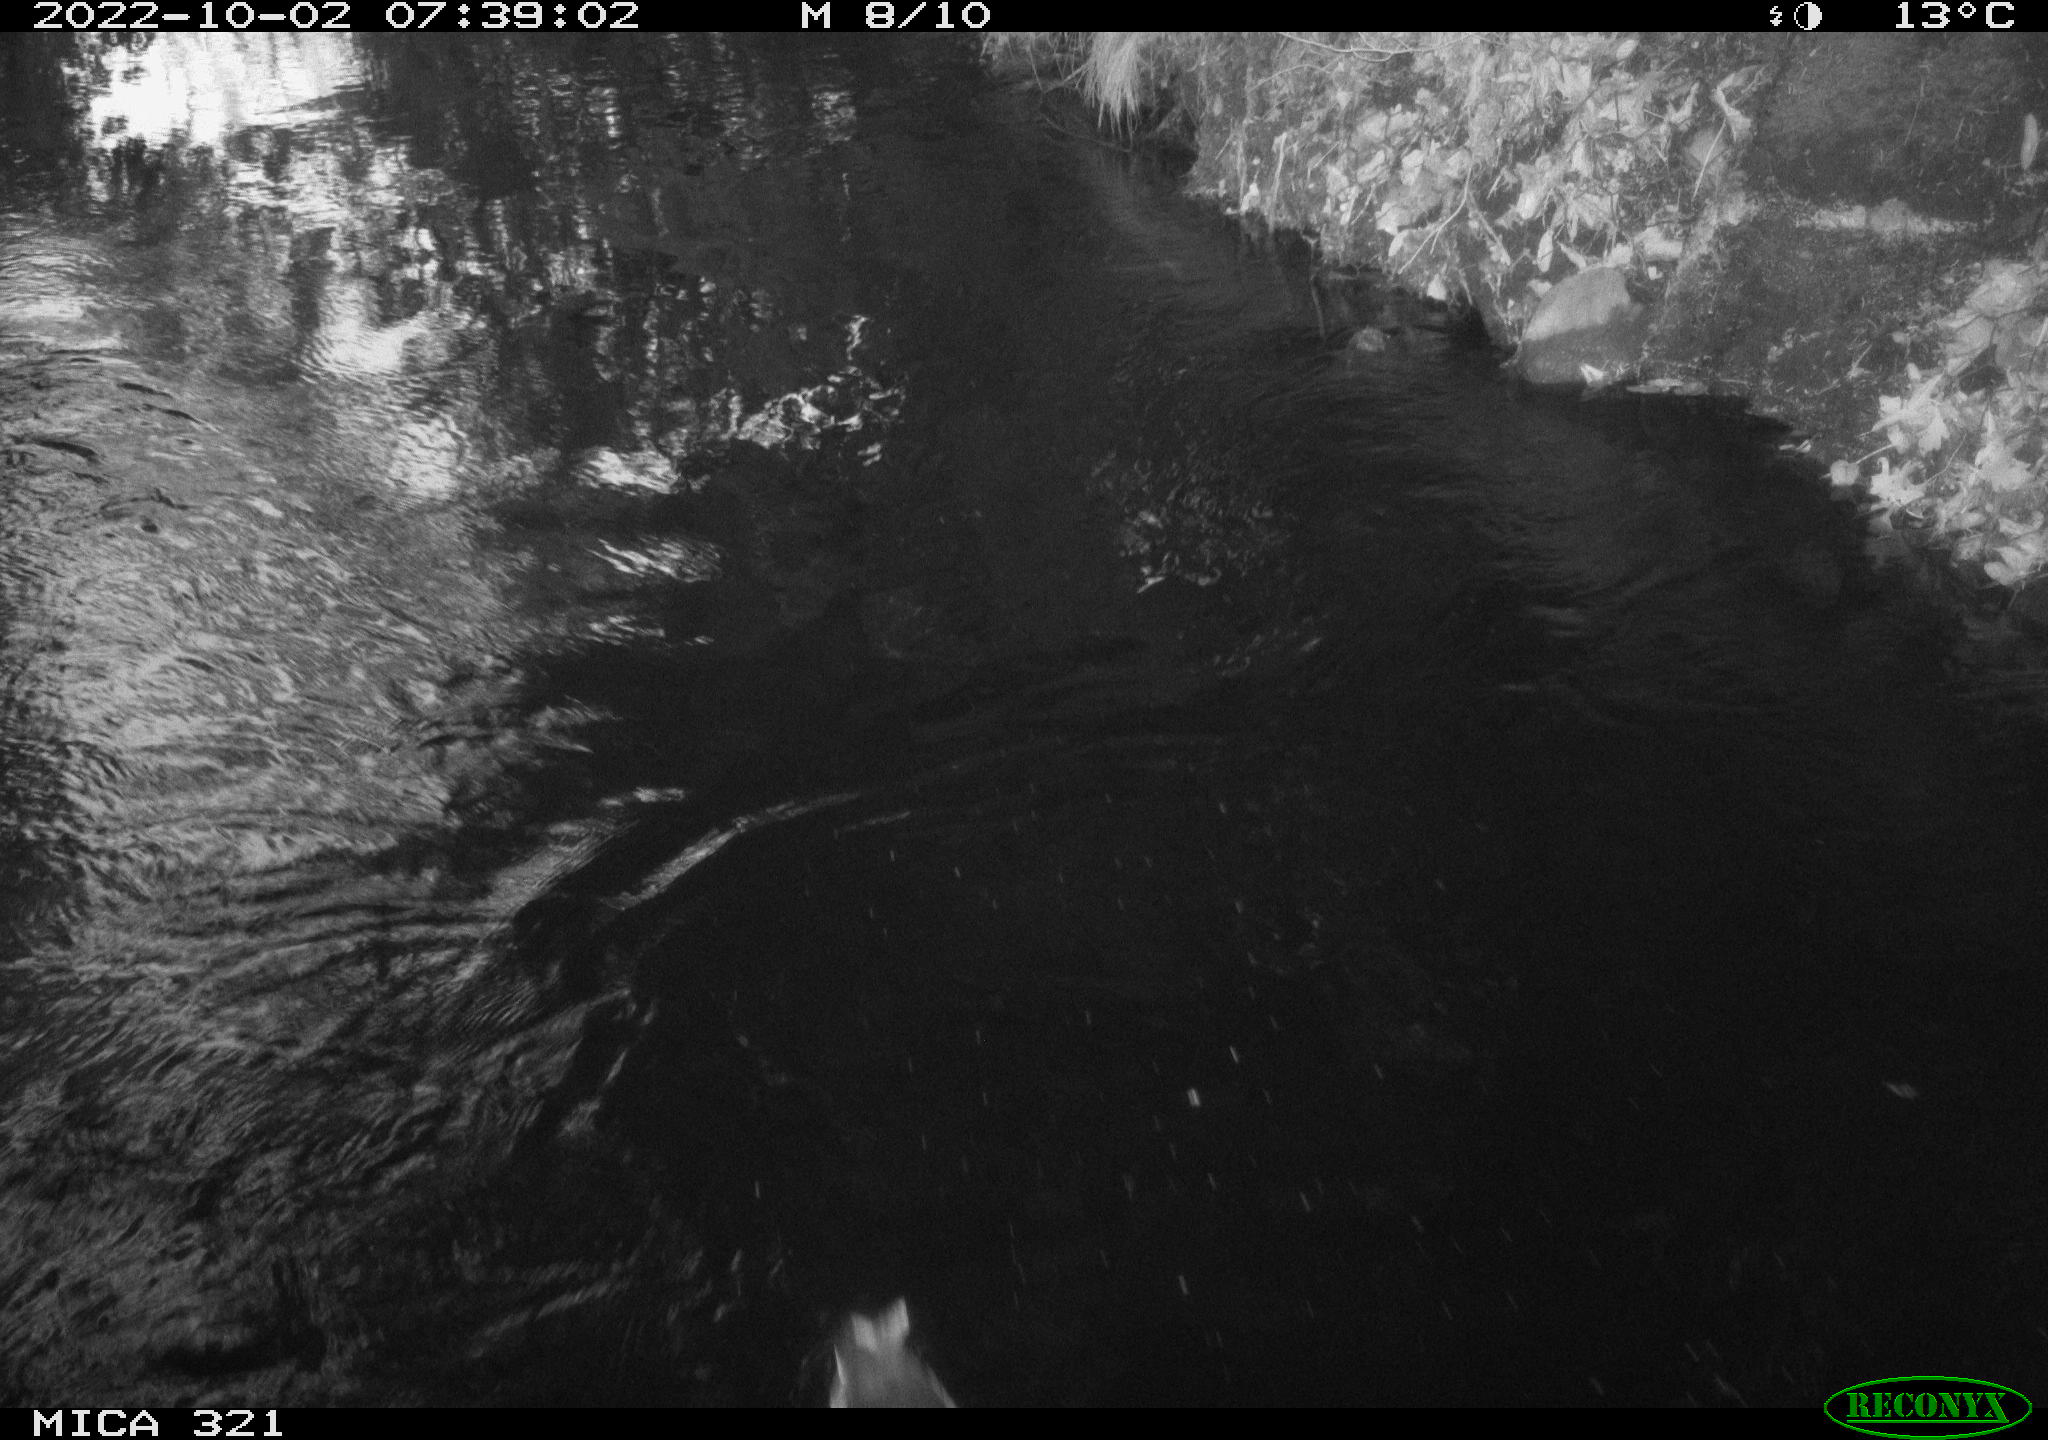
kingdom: Animalia
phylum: Chordata
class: Aves
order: Anseriformes
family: Anatidae
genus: Anas
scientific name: Anas
